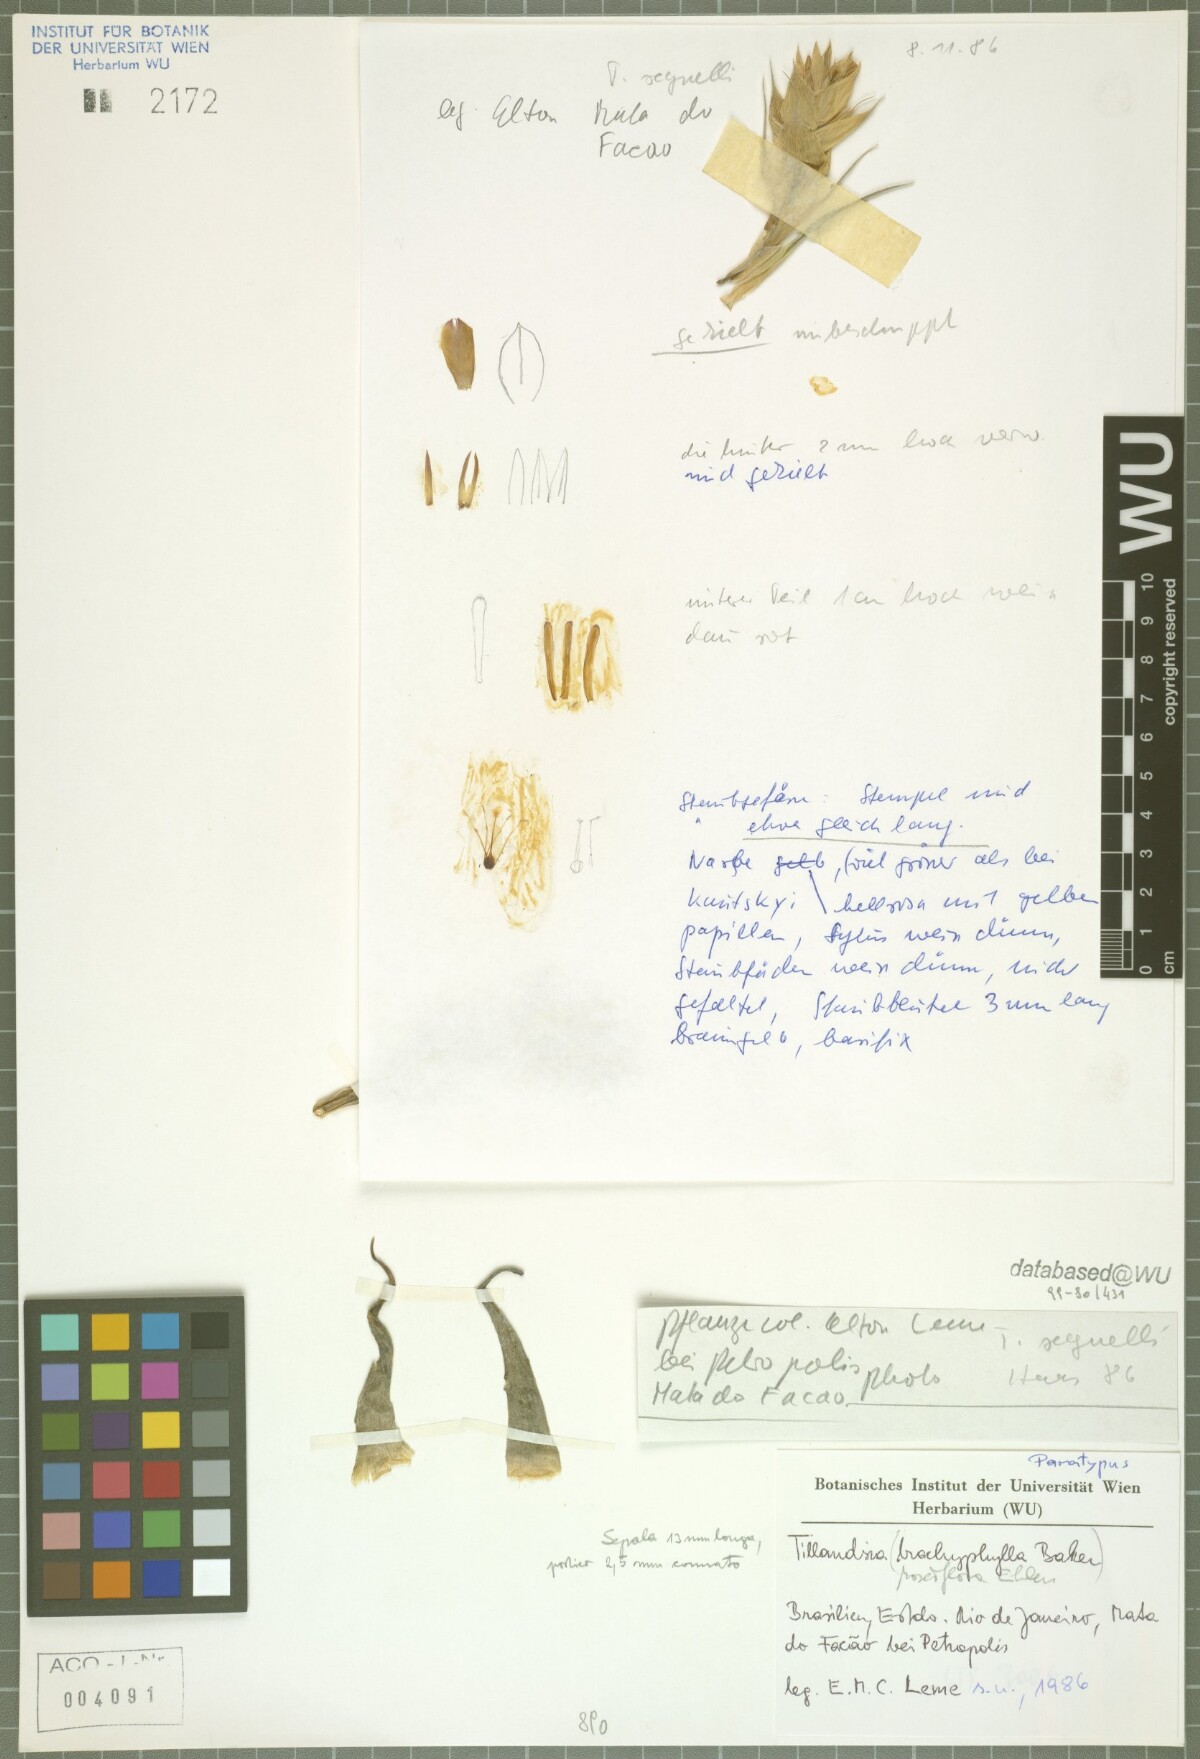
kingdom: Plantae
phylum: Tracheophyta
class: Liliopsida
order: Poales
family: Bromeliaceae
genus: Tillandsia
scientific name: Tillandsia roseiflora
